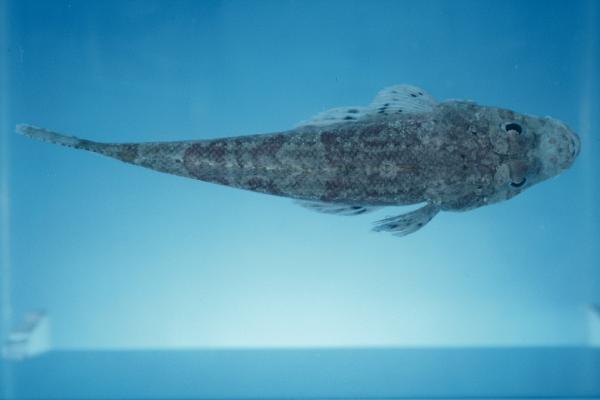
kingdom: Animalia
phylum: Chordata
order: Scorpaeniformes
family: Platycephalidae
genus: Platycephalus
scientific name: Platycephalus
